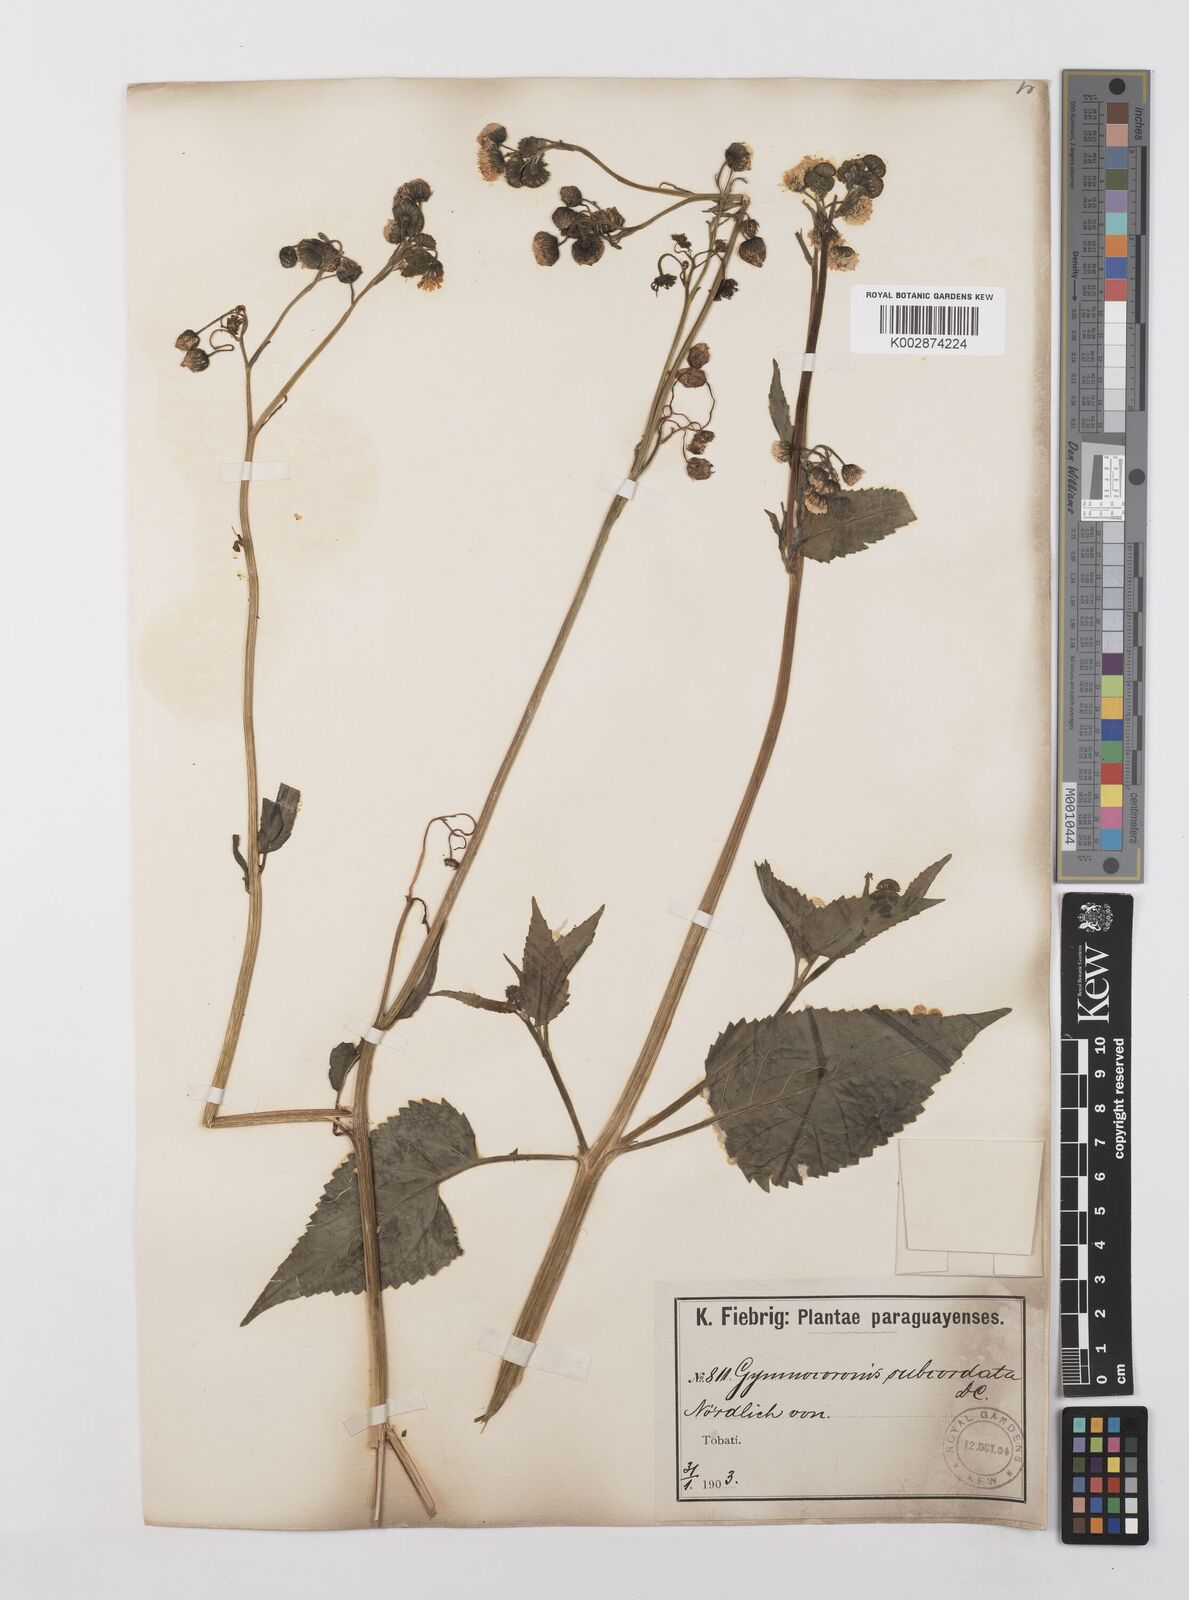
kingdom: Plantae
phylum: Tracheophyta
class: Magnoliopsida
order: Asterales
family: Asteraceae
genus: Gymnocoronis
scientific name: Gymnocoronis spilanthoides
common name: Senegal teaplant
